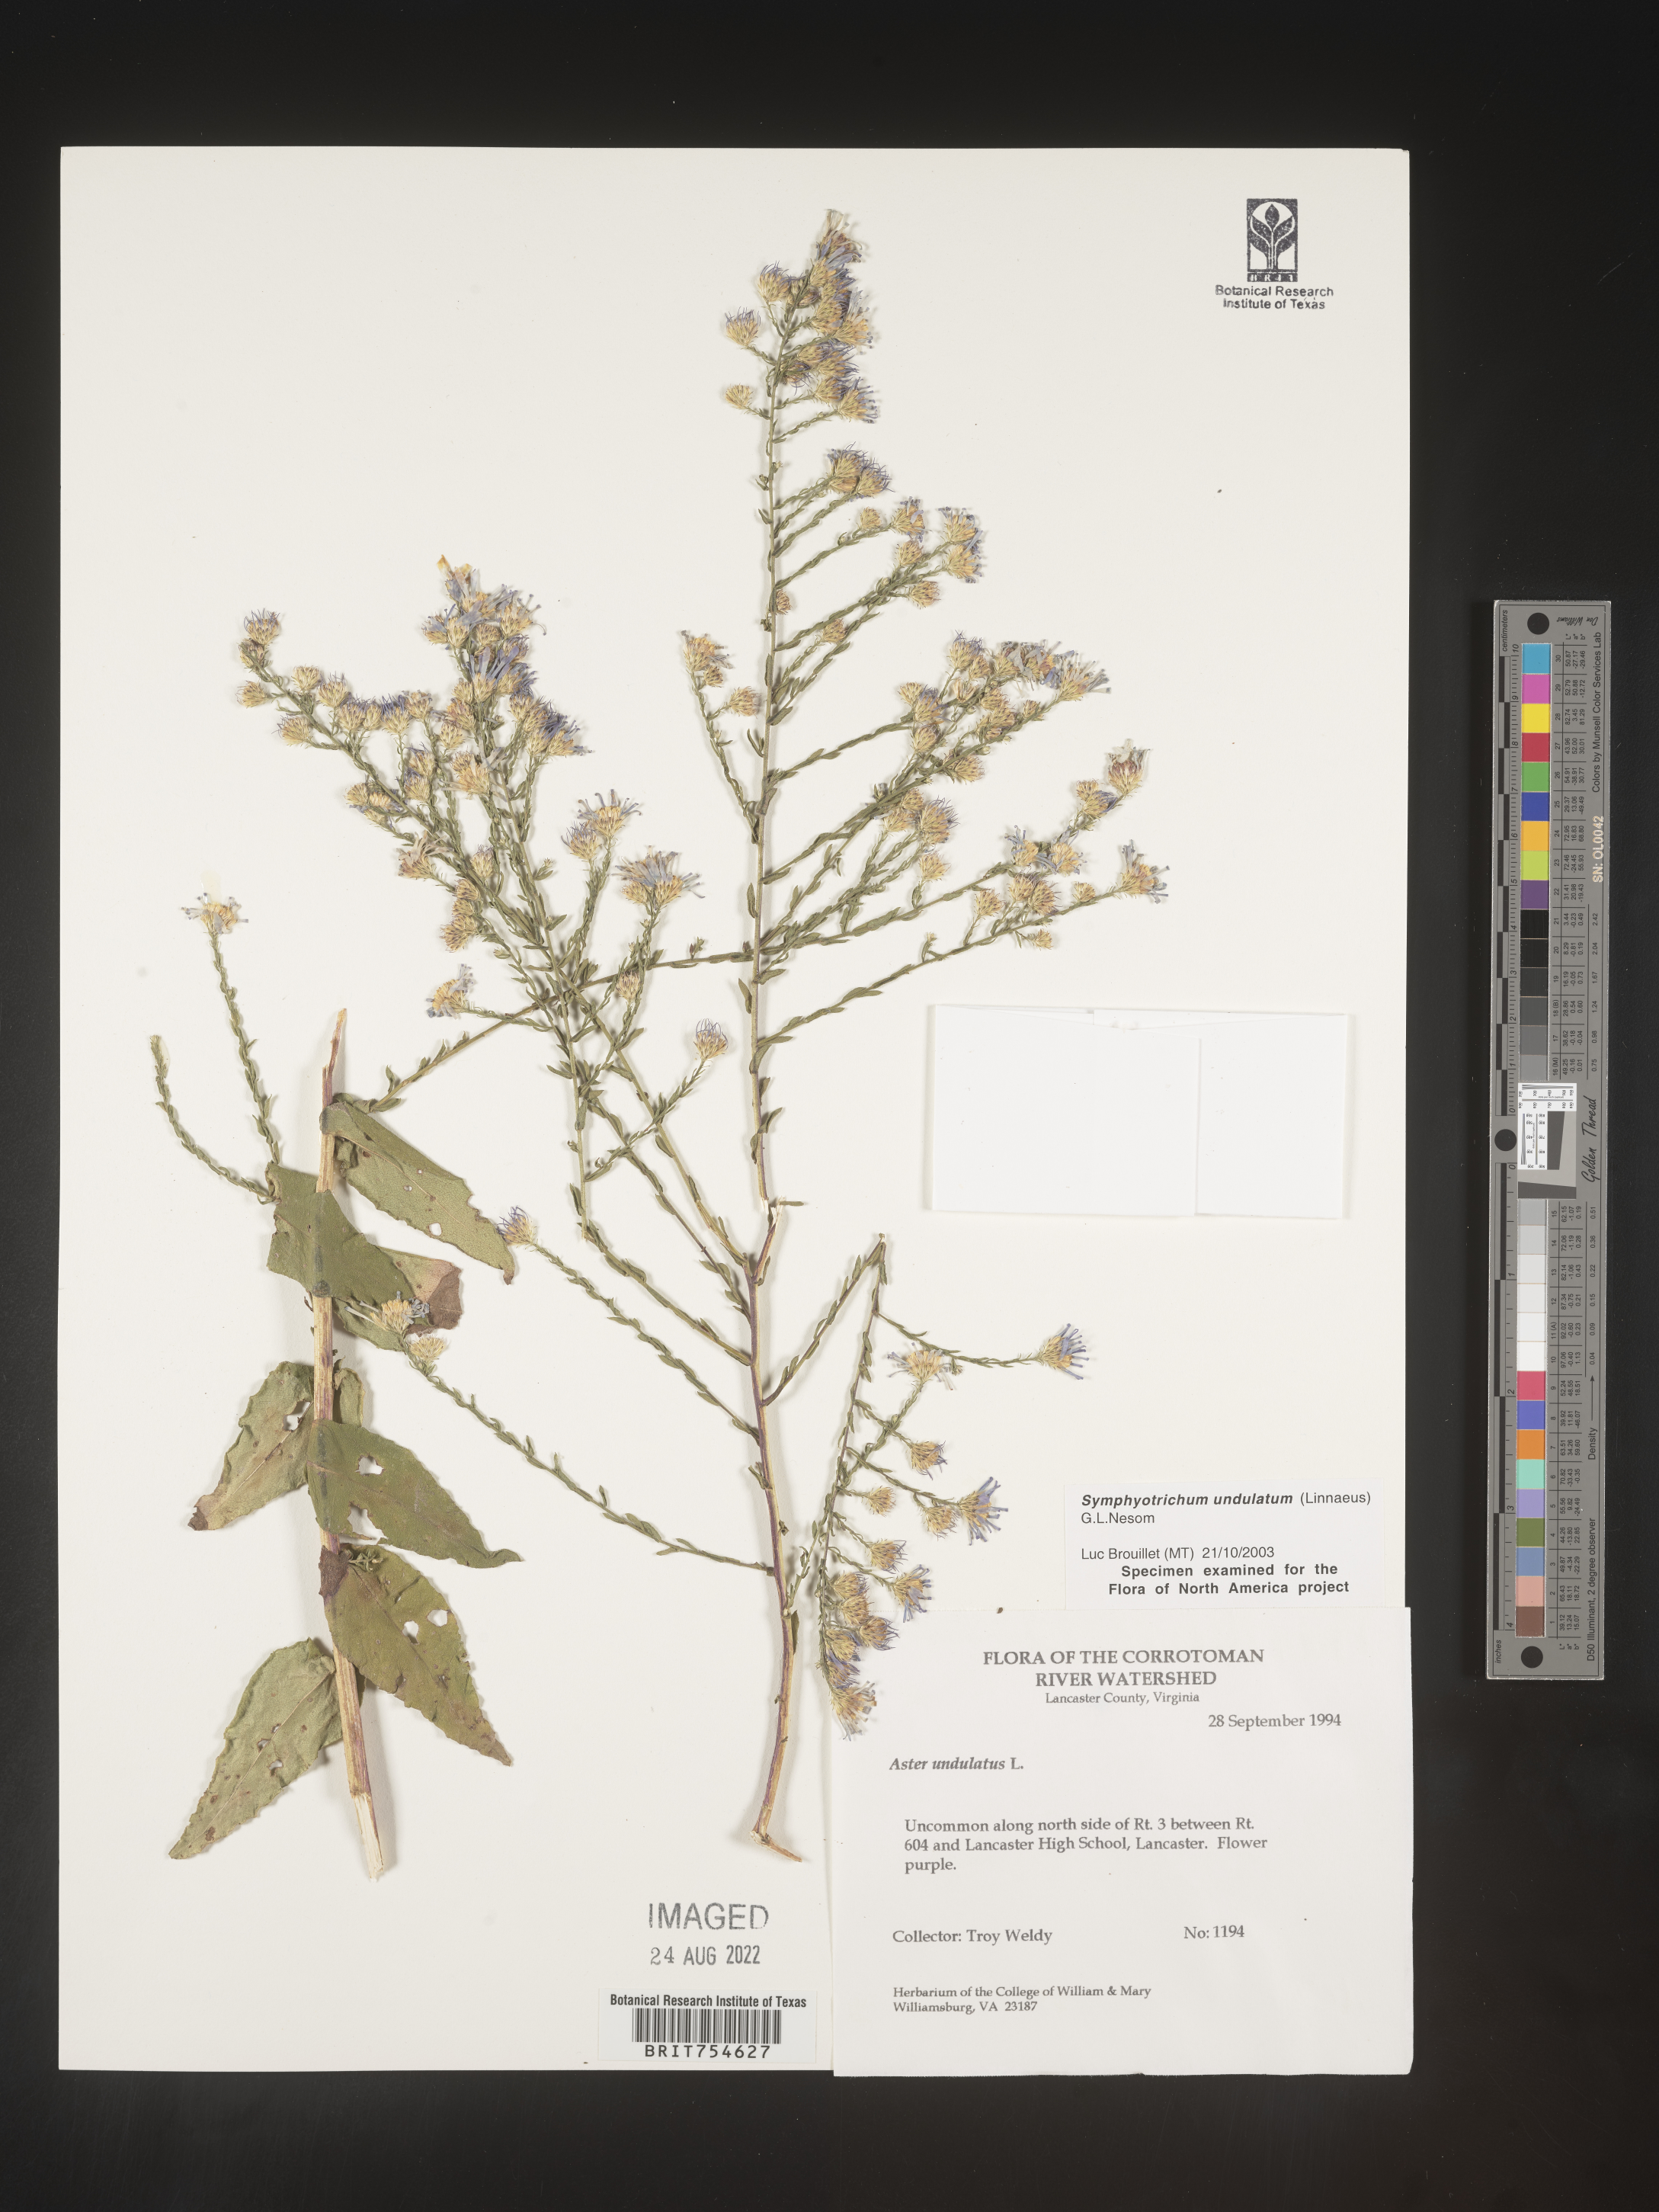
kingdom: Plantae
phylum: Tracheophyta
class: Magnoliopsida
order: Asterales
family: Asteraceae
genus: Symphyotrichum
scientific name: Symphyotrichum undulatum
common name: Clasping heart-leaf aster
